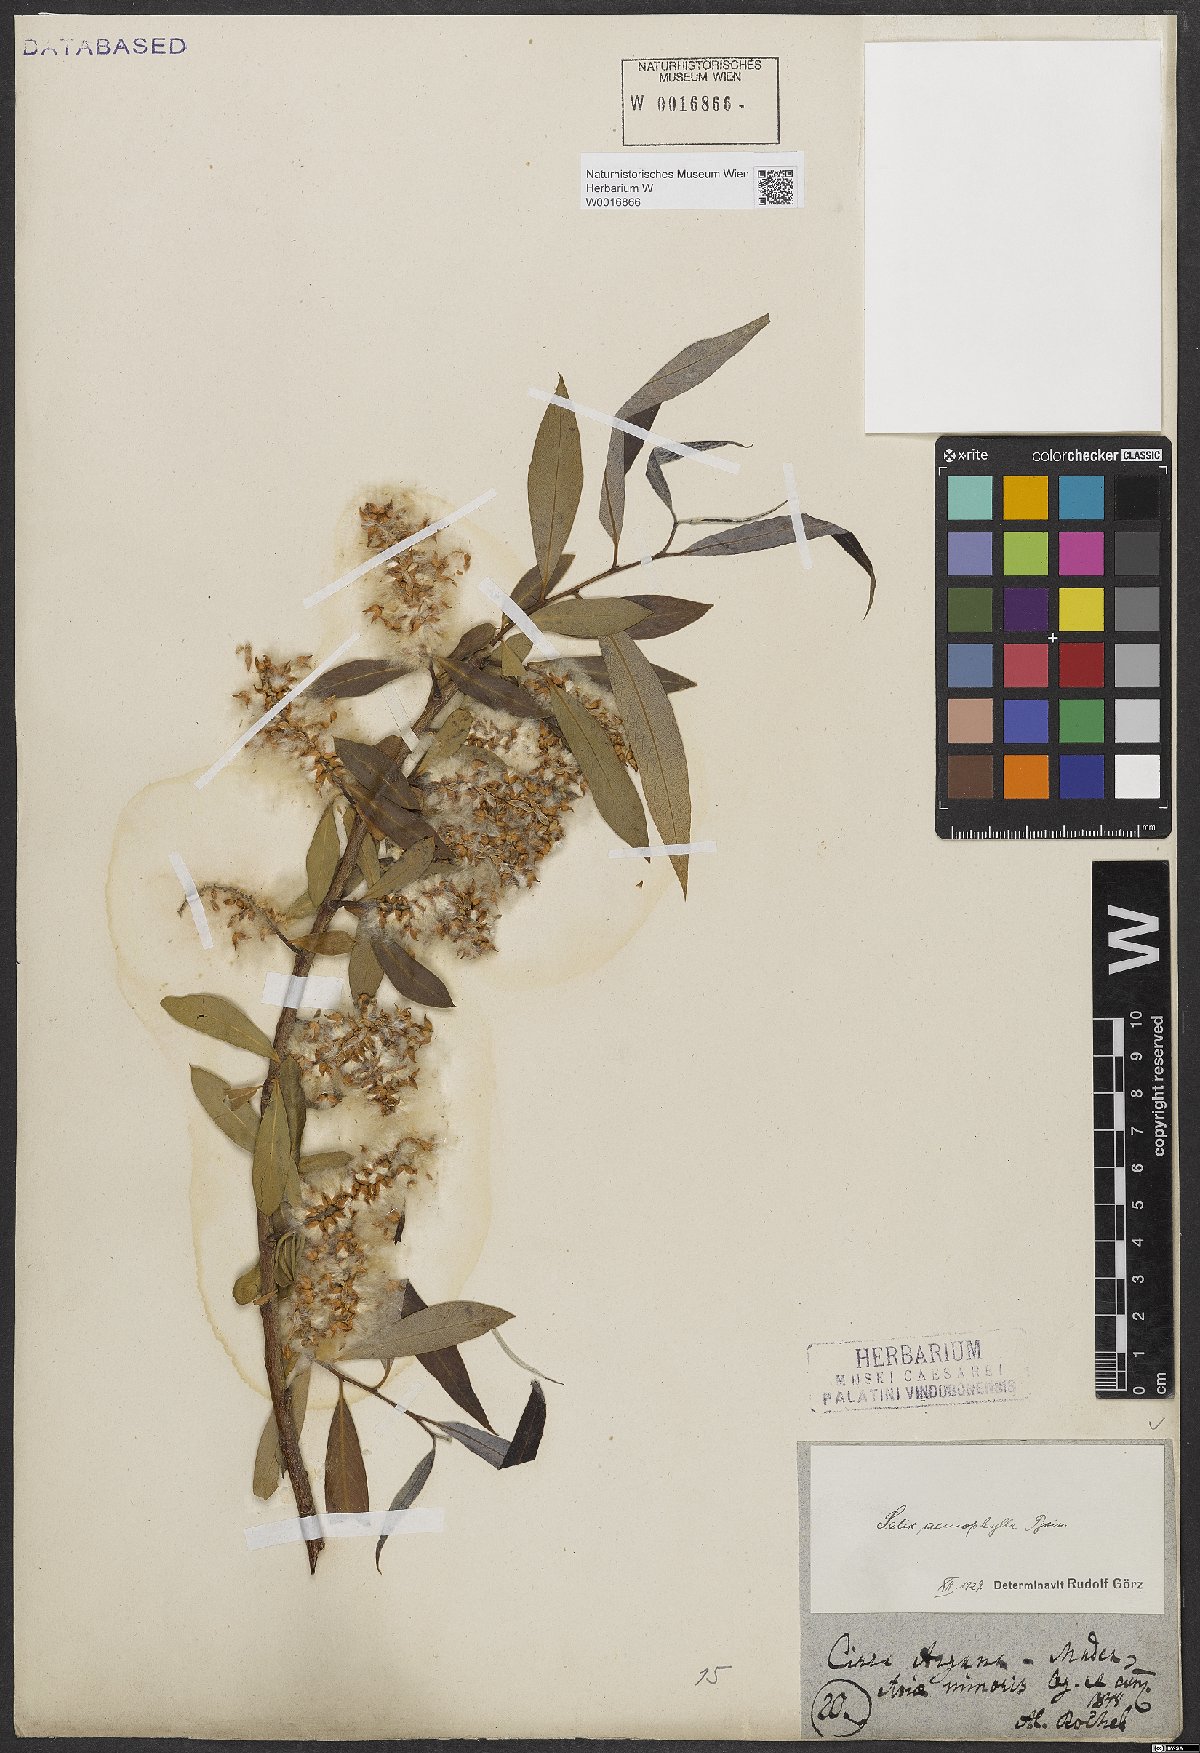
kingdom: Plantae
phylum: Tracheophyta
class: Magnoliopsida
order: Malpighiales
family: Salicaceae
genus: Salix
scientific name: Salix acmophylla
